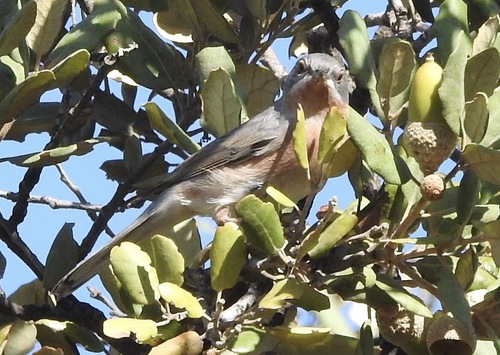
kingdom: Animalia
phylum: Chordata
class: Aves
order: Passeriformes
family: Sylviidae
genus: Sylvia
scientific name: Sylvia cantillans
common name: Subalpine warbler
